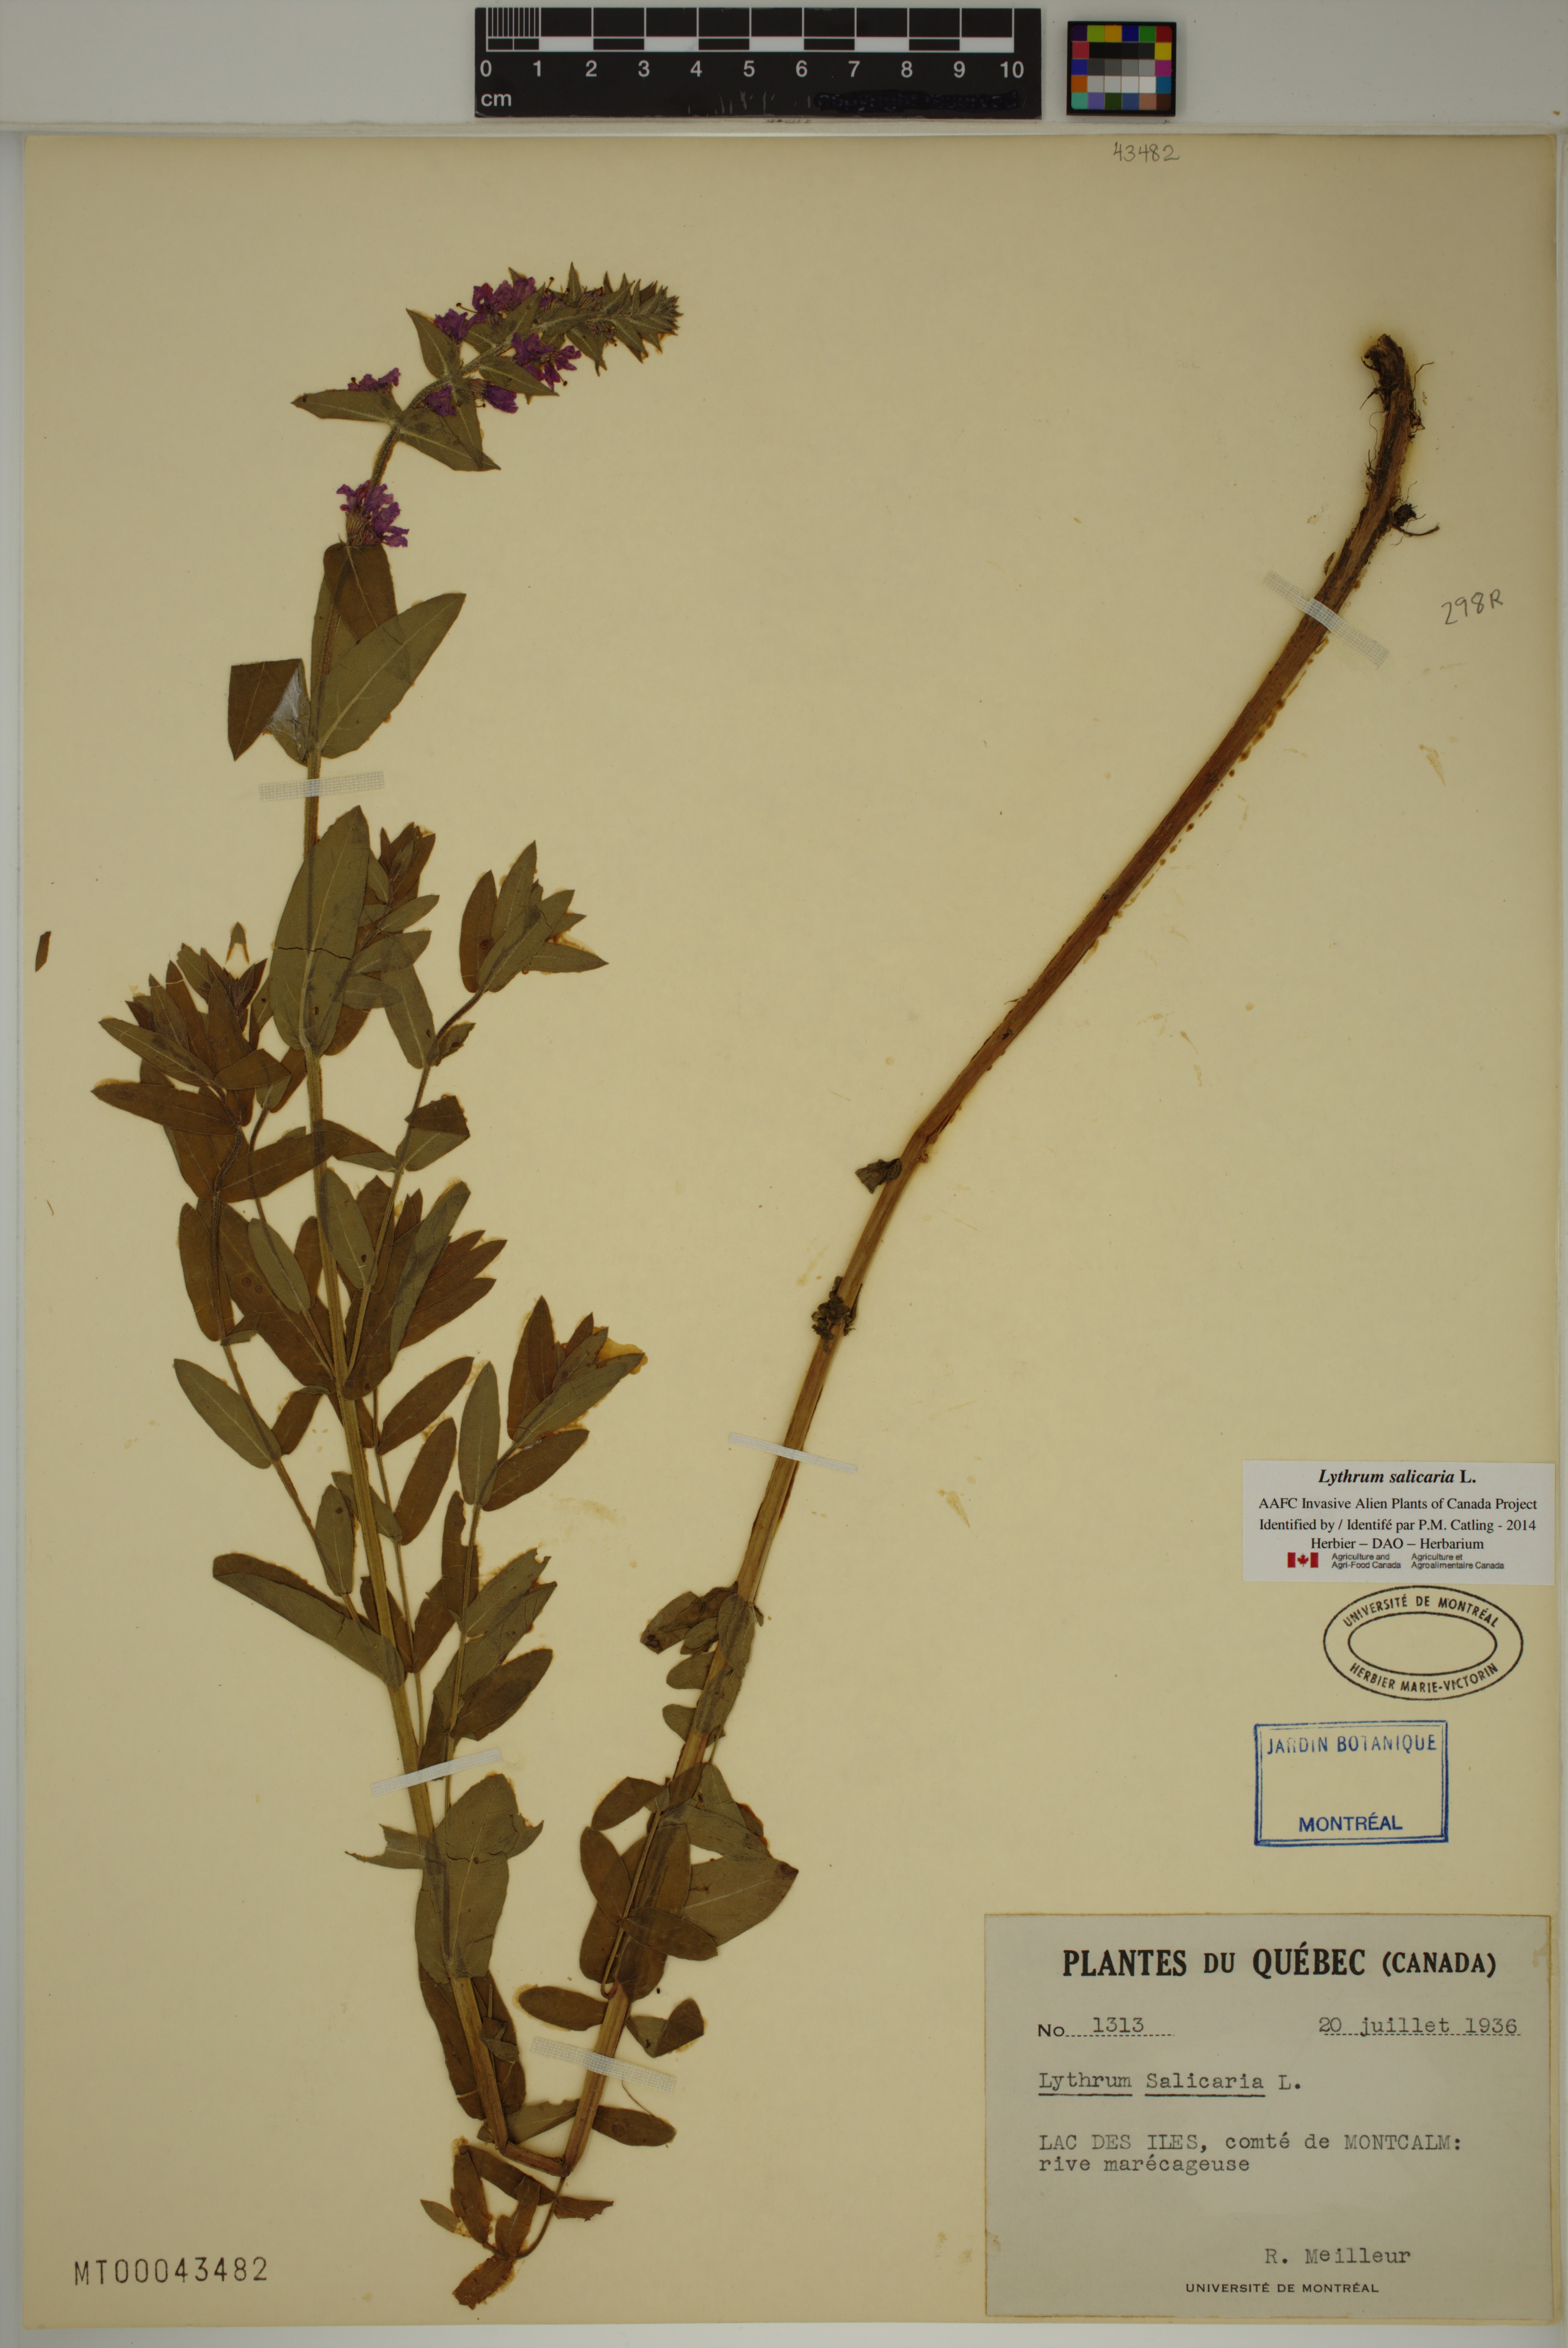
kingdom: Plantae
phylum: Tracheophyta
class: Magnoliopsida
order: Myrtales
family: Lythraceae
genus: Lythrum
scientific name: Lythrum salicaria
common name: Purple loosestrife
